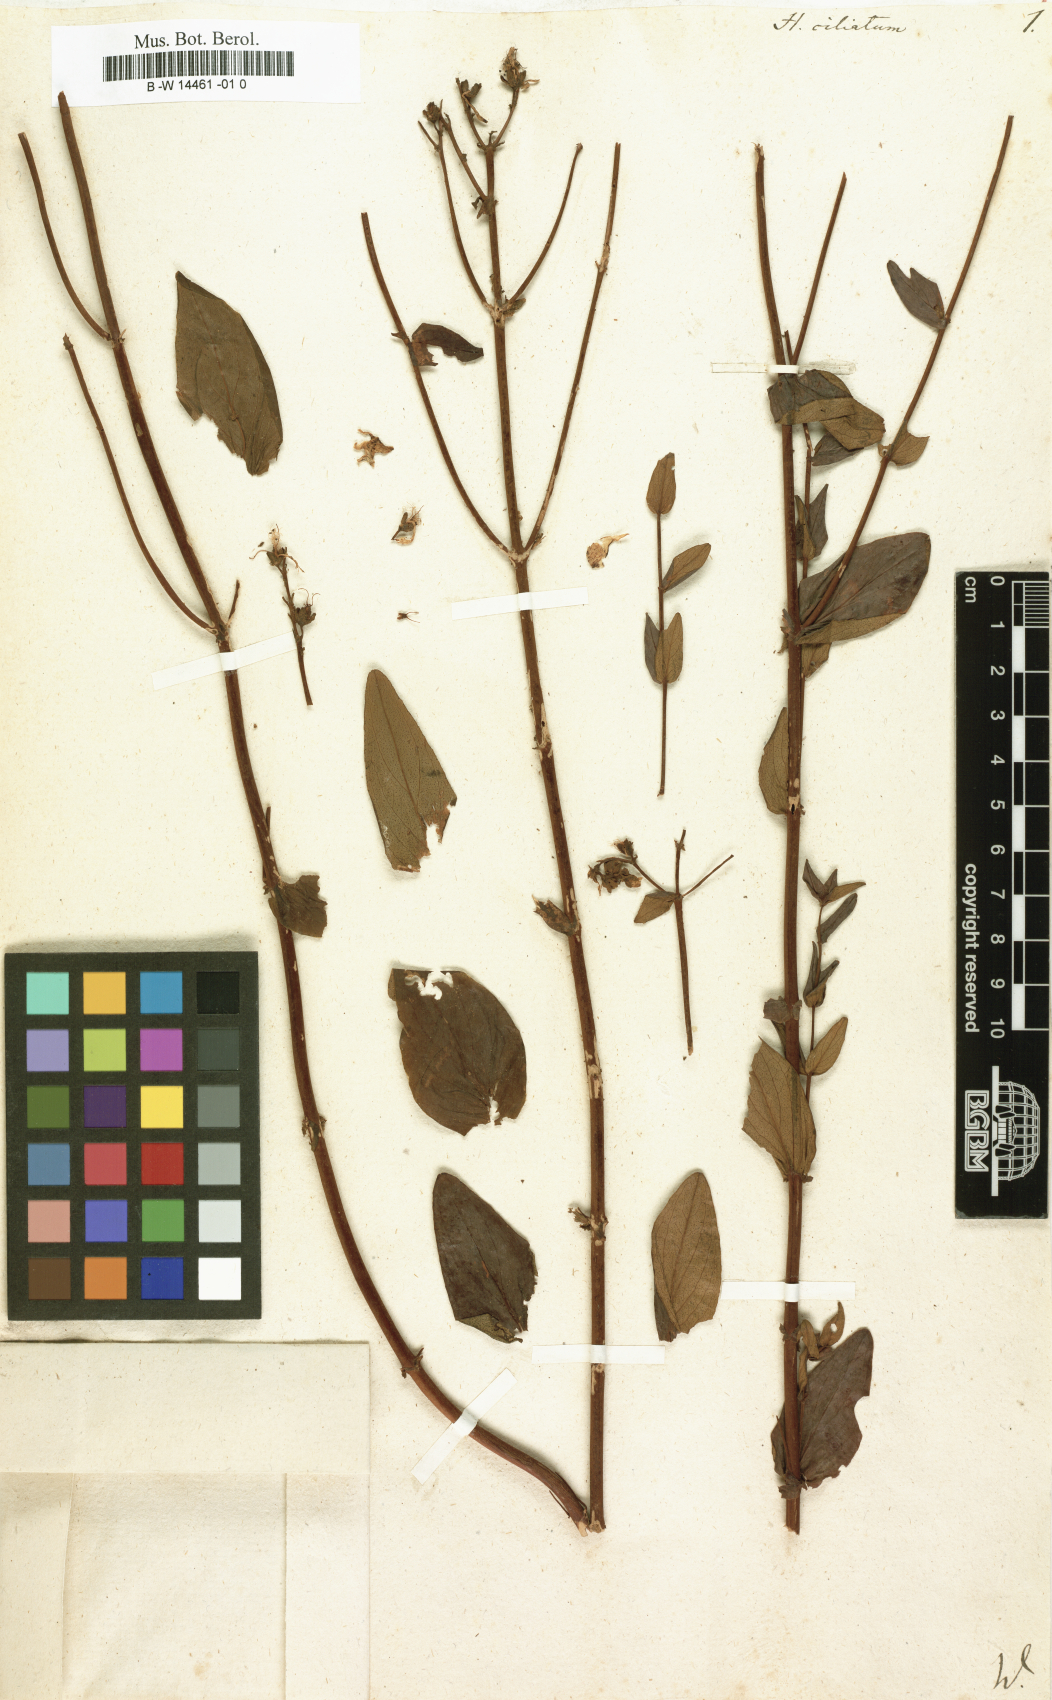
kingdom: Plantae
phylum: Tracheophyta
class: Magnoliopsida
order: Malpighiales
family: Hypericaceae
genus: Hypericum
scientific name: Hypericum perfoliatum
